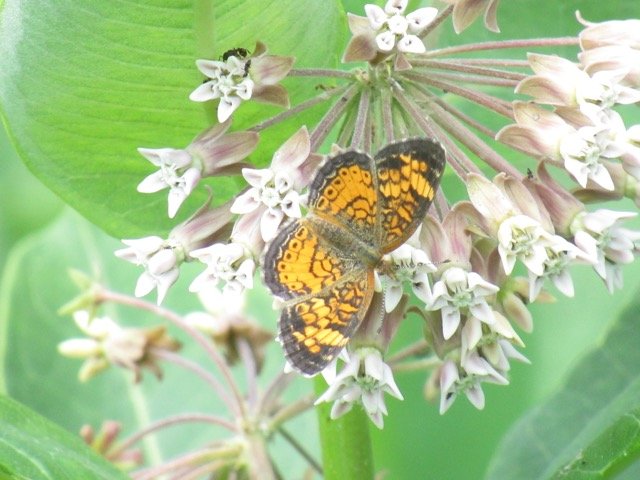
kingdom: Animalia
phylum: Arthropoda
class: Insecta
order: Lepidoptera
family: Nymphalidae
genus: Phyciodes
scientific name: Phyciodes tharos
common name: Pearl Crescent
